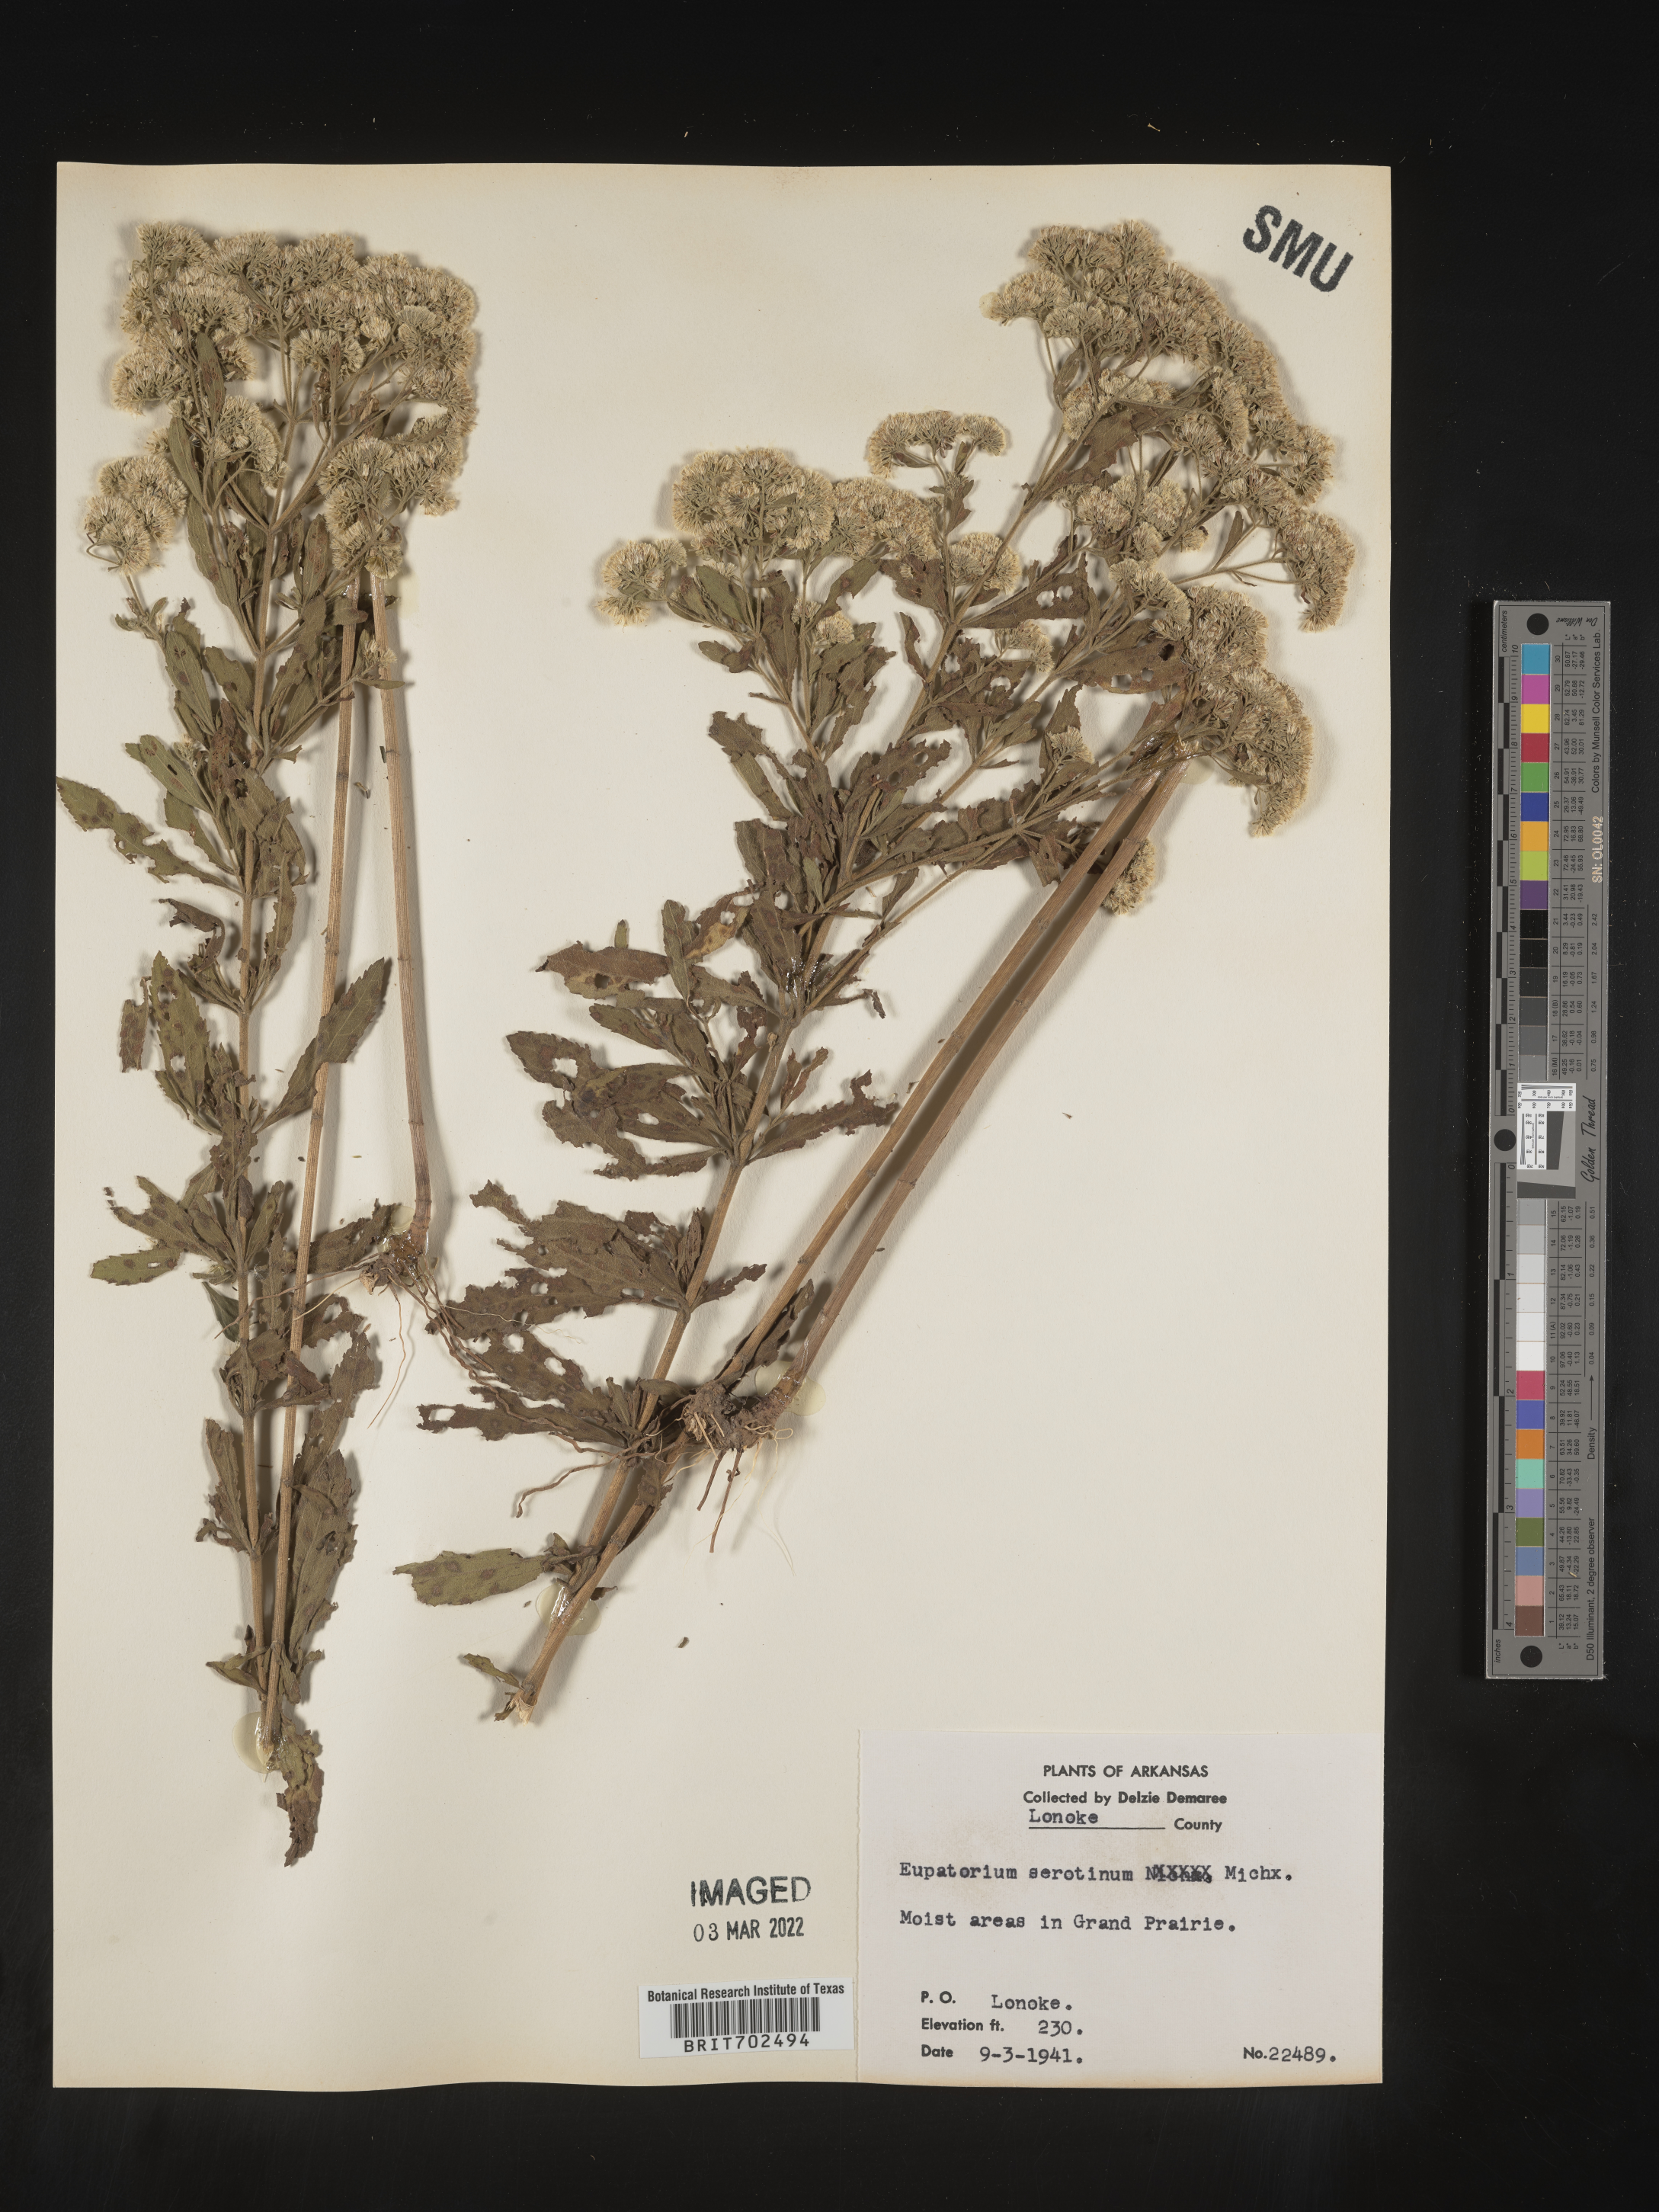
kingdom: Plantae
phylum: Tracheophyta
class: Magnoliopsida
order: Asterales
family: Asteraceae
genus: Eupatorium
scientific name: Eupatorium serotinum
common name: Late boneset
